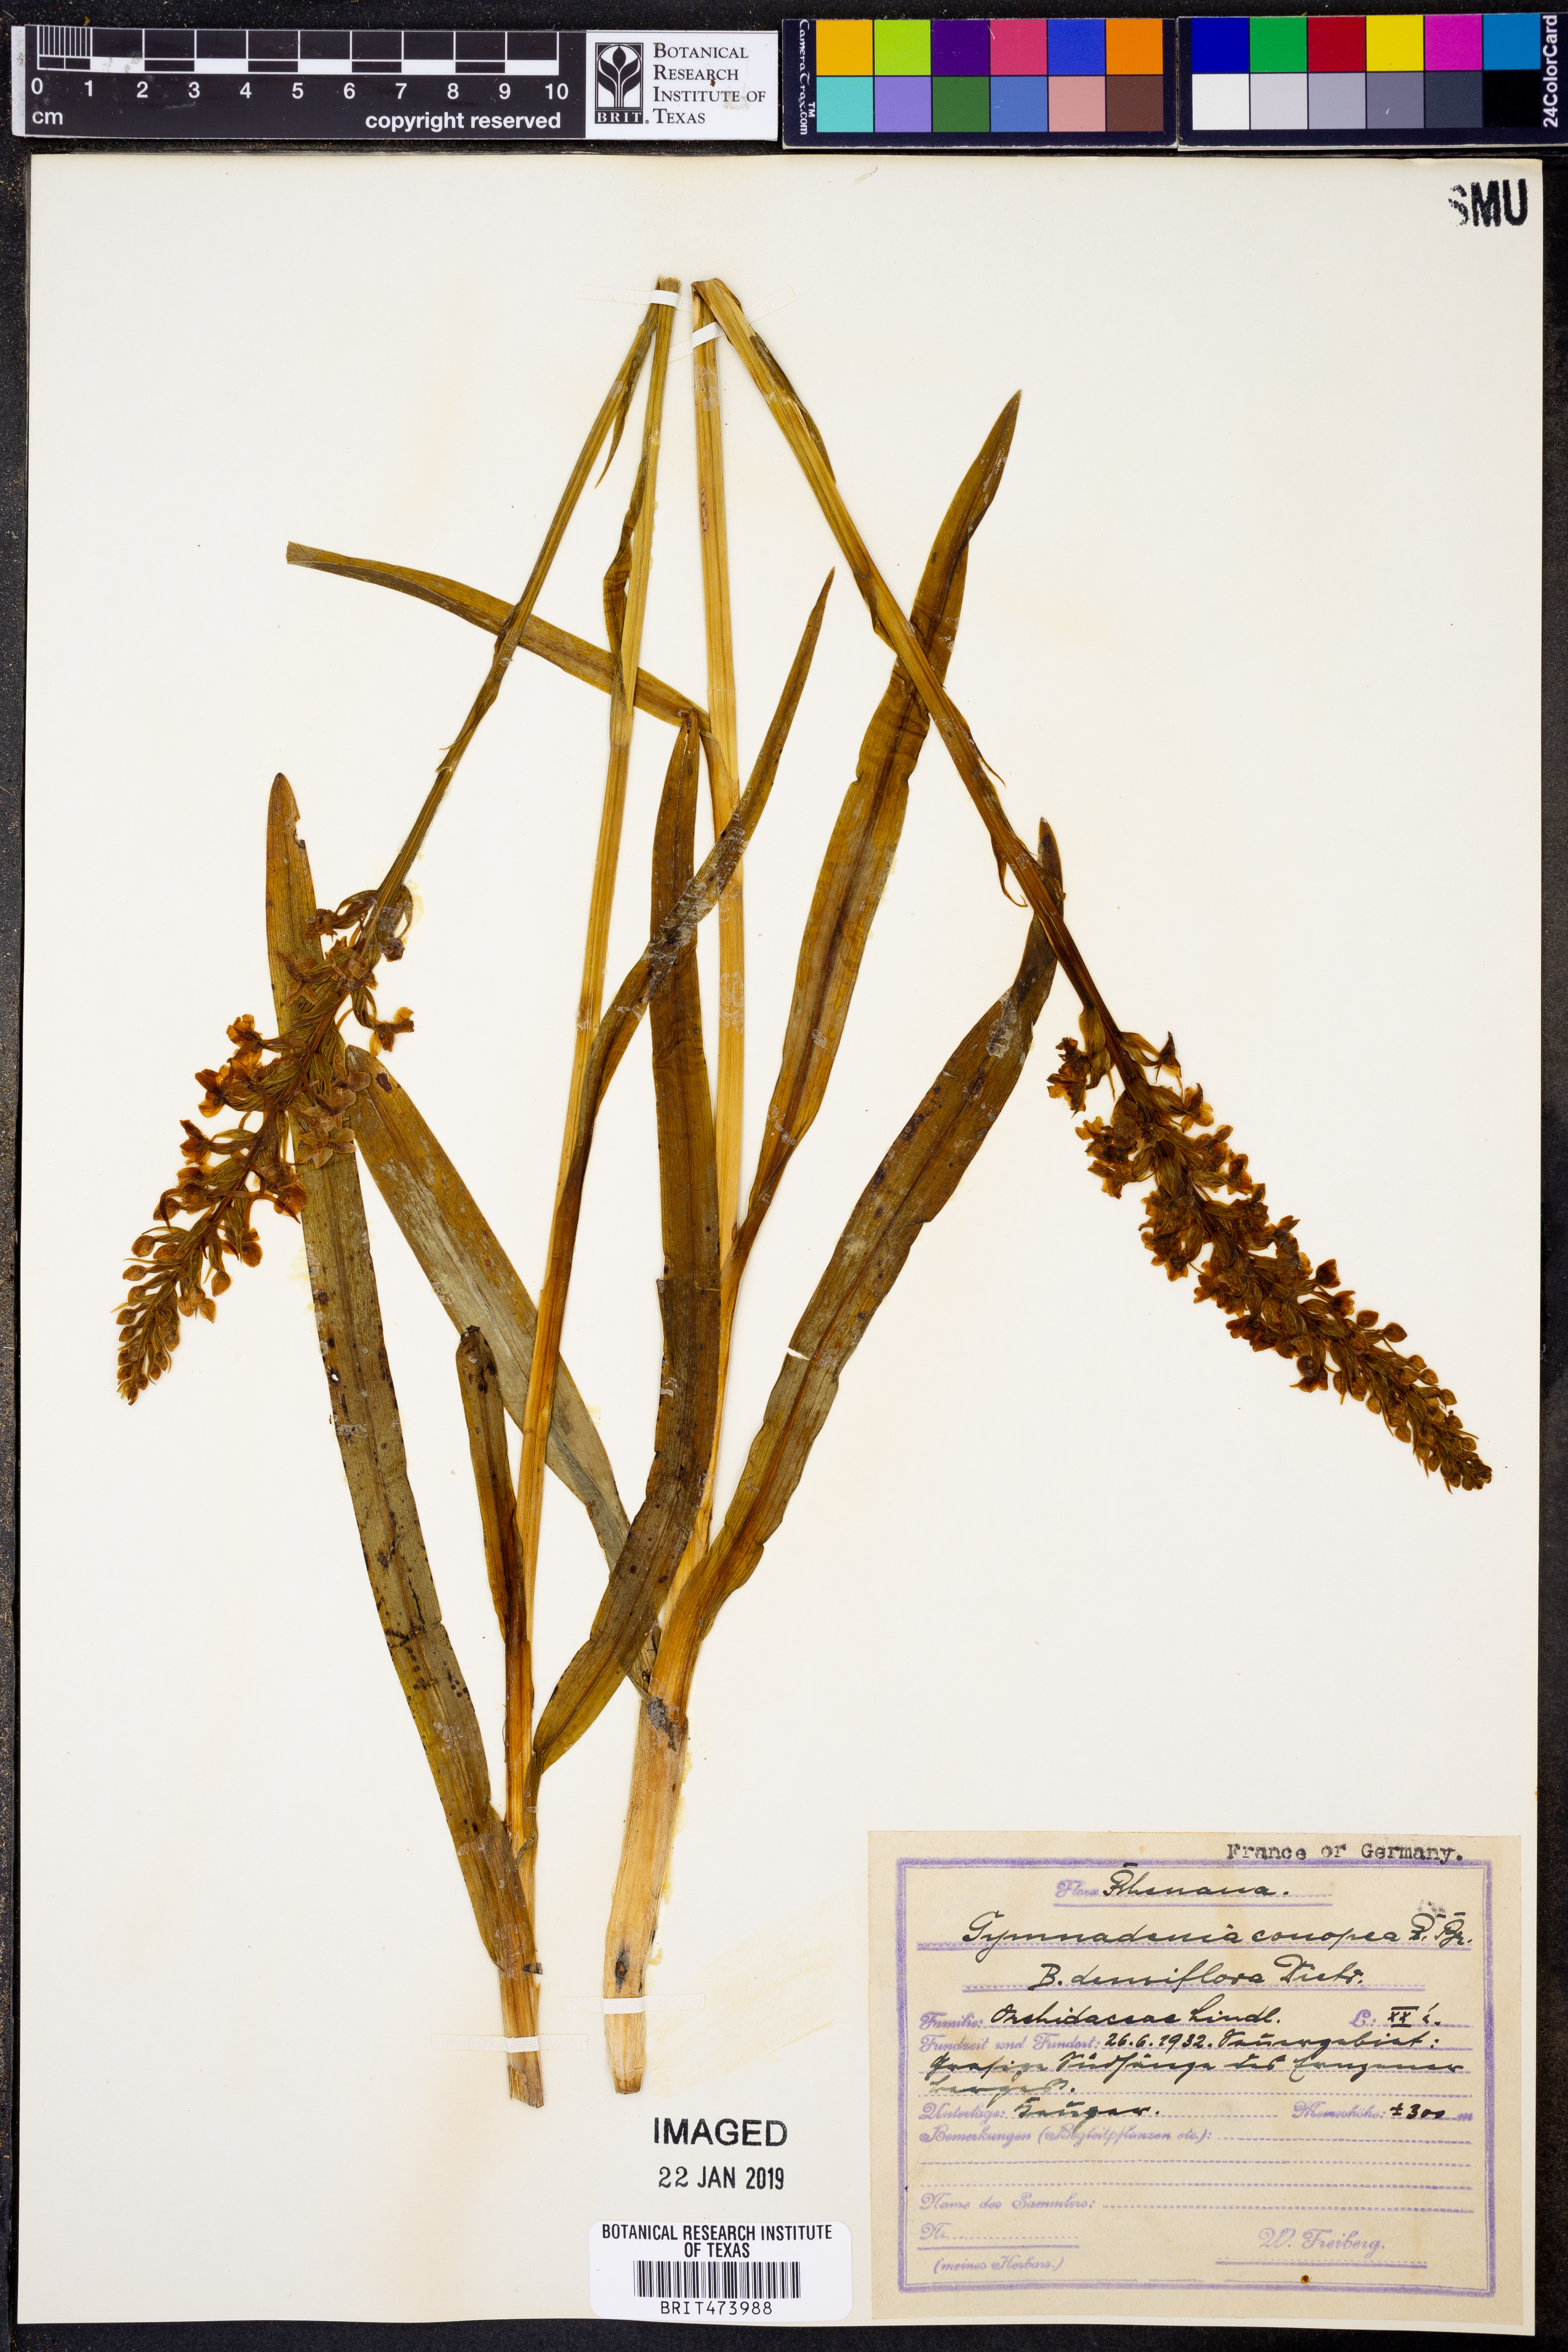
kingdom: Plantae
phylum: Tracheophyta
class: Liliopsida
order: Asparagales
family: Orchidaceae
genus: Gymnadenia
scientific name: Gymnadenia conopsea
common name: Fragrant orchid
